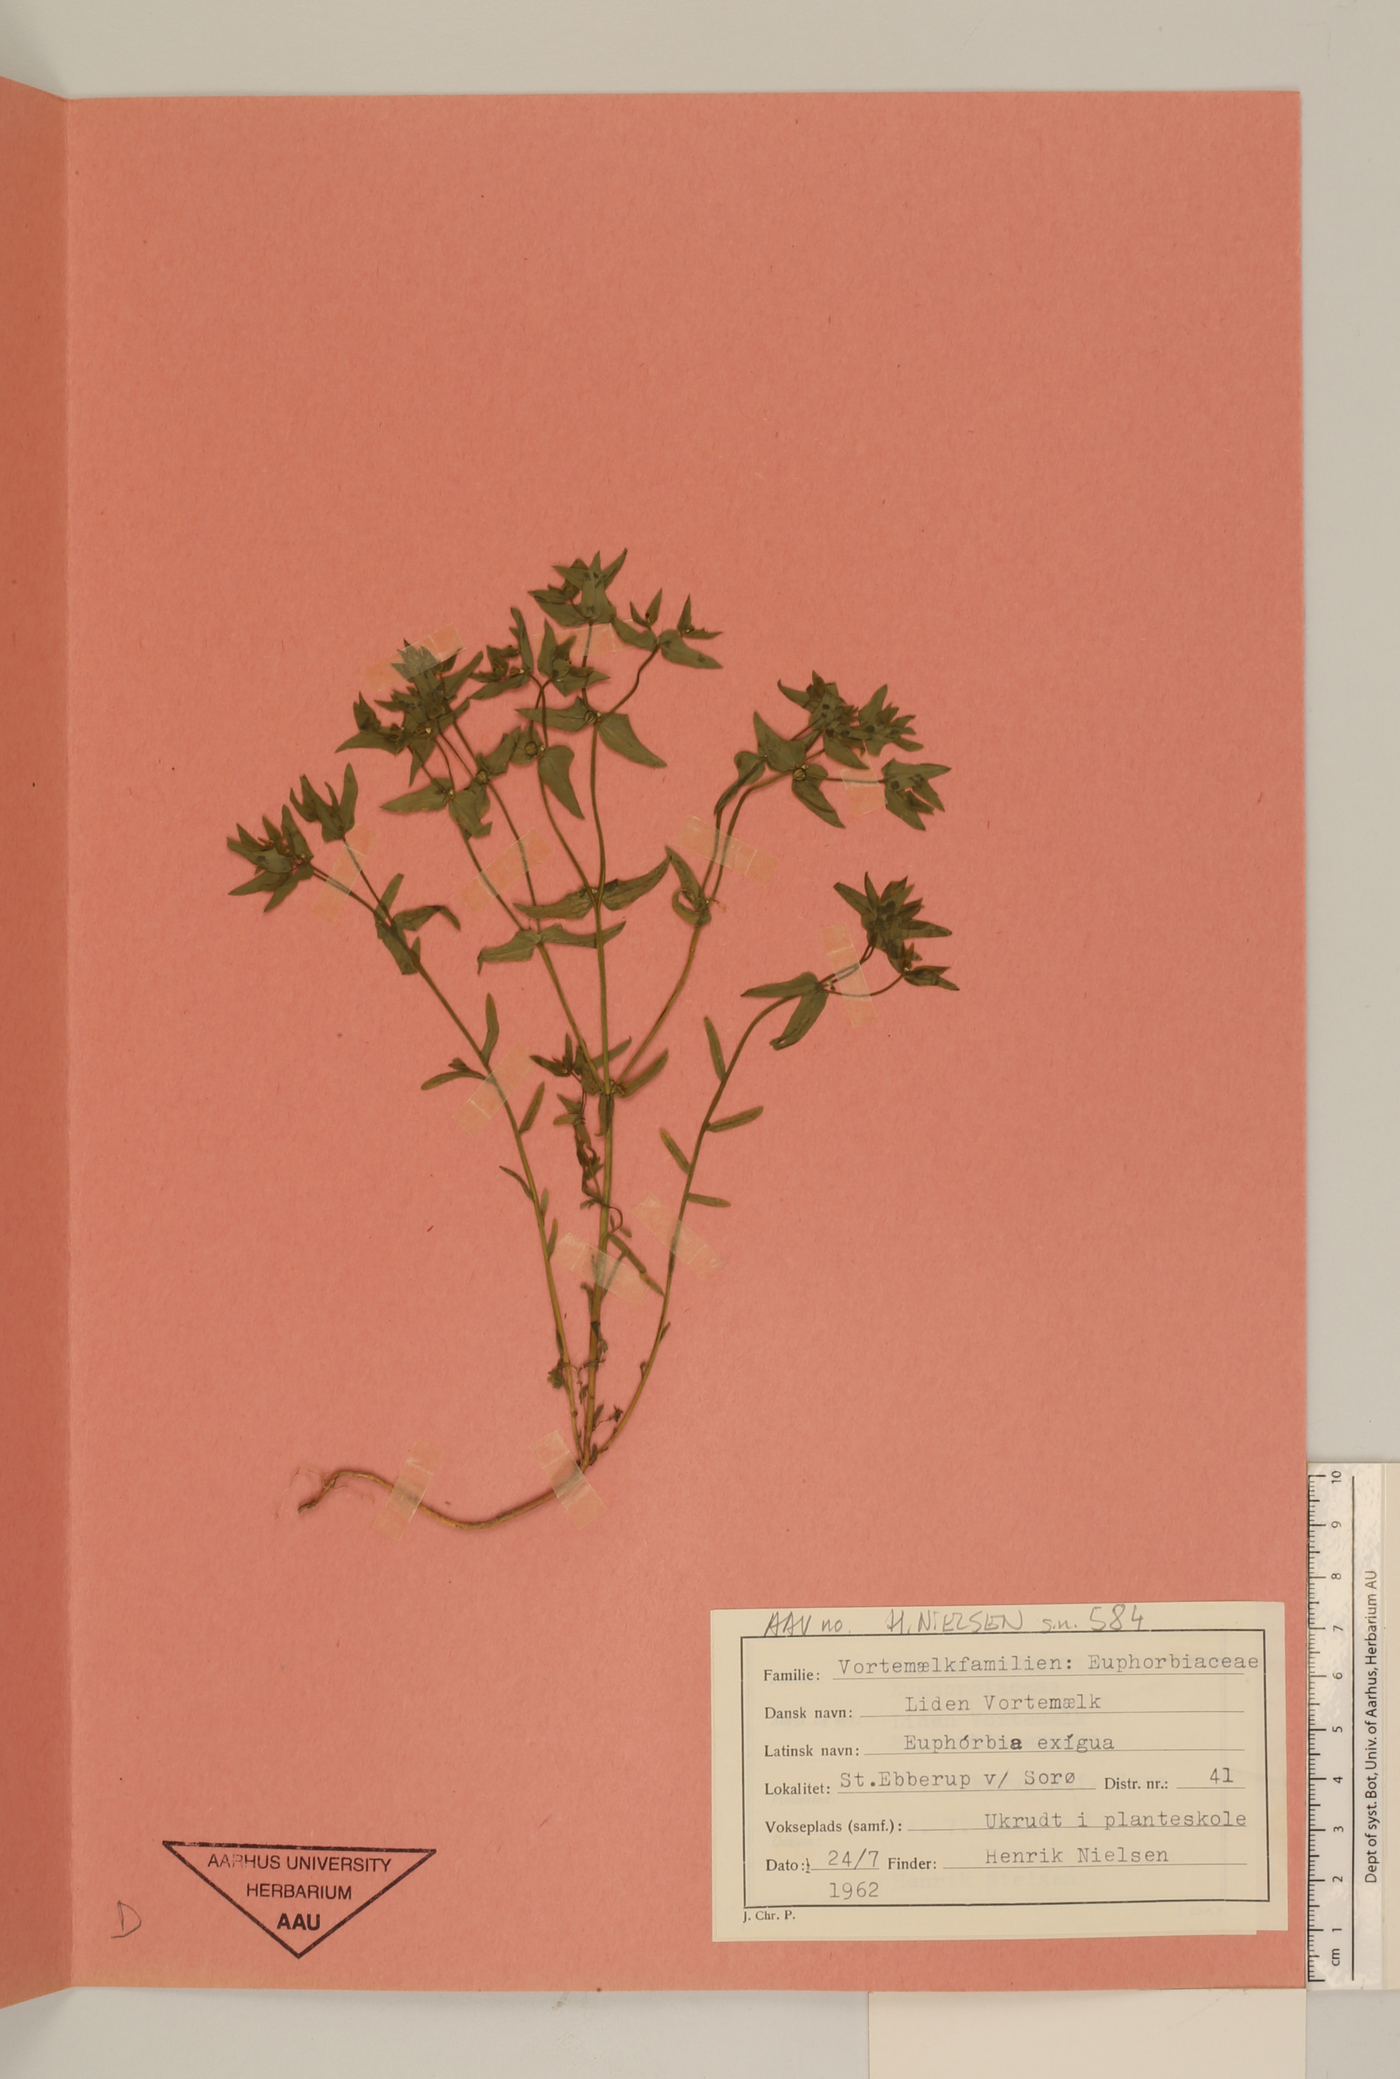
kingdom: Plantae
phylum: Tracheophyta
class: Magnoliopsida
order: Malpighiales
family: Euphorbiaceae
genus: Euphorbia
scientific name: Euphorbia exigua
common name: Dwarf spurge
